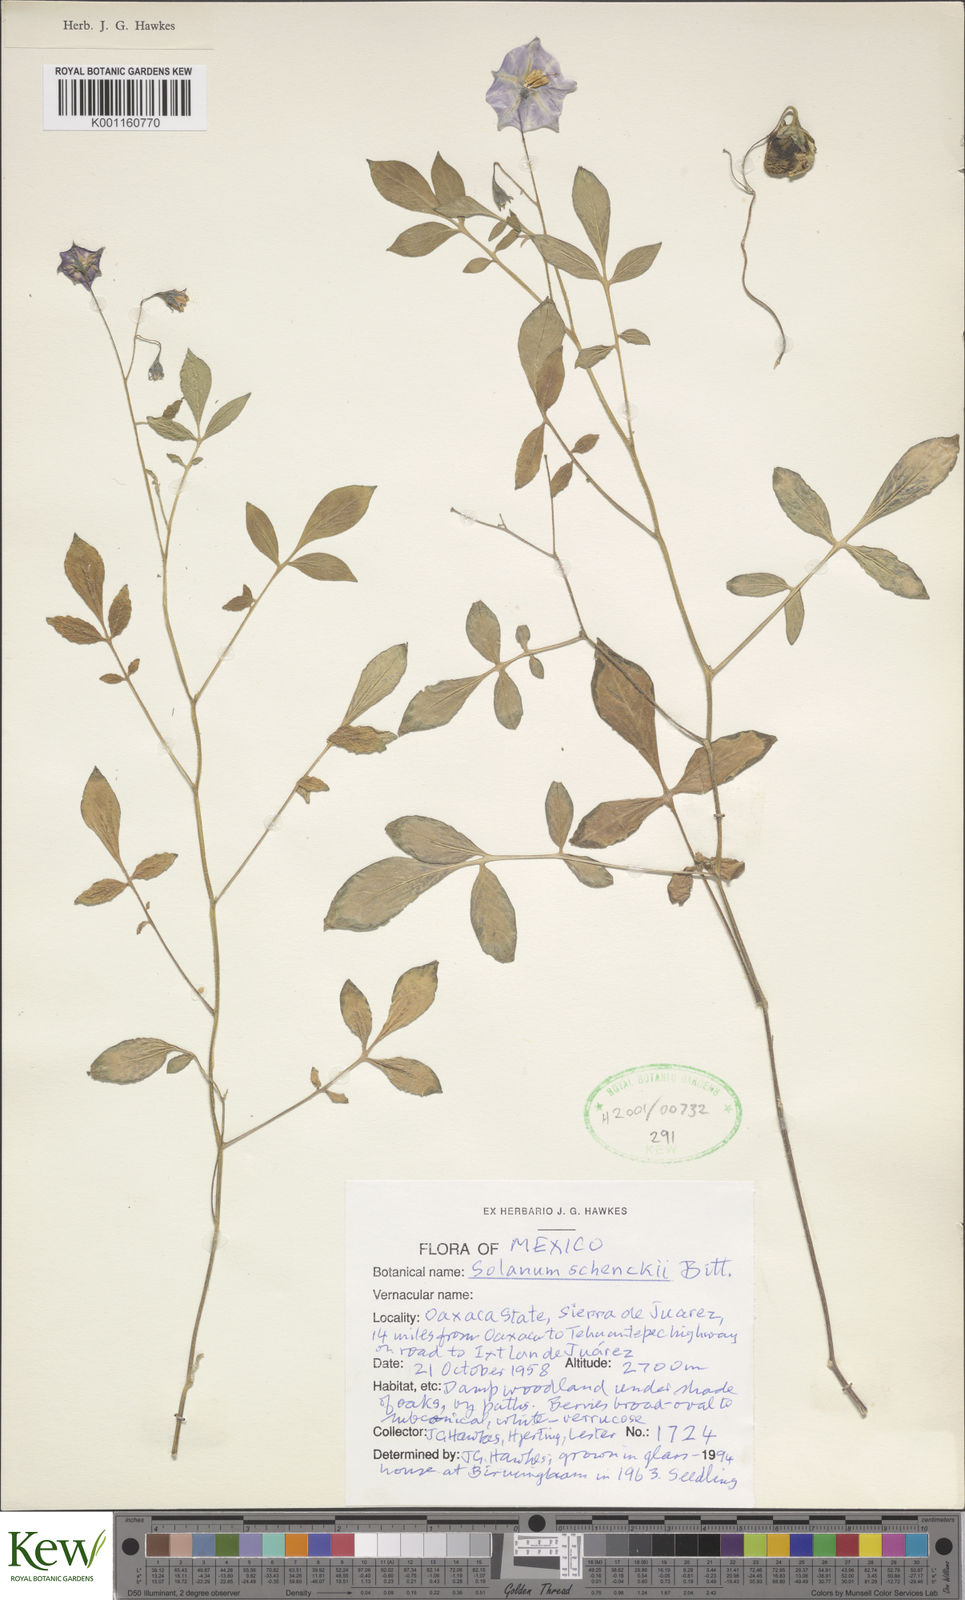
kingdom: Plantae
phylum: Tracheophyta
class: Magnoliopsida
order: Solanales
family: Solanaceae
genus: Solanum
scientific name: Solanum schenckii
